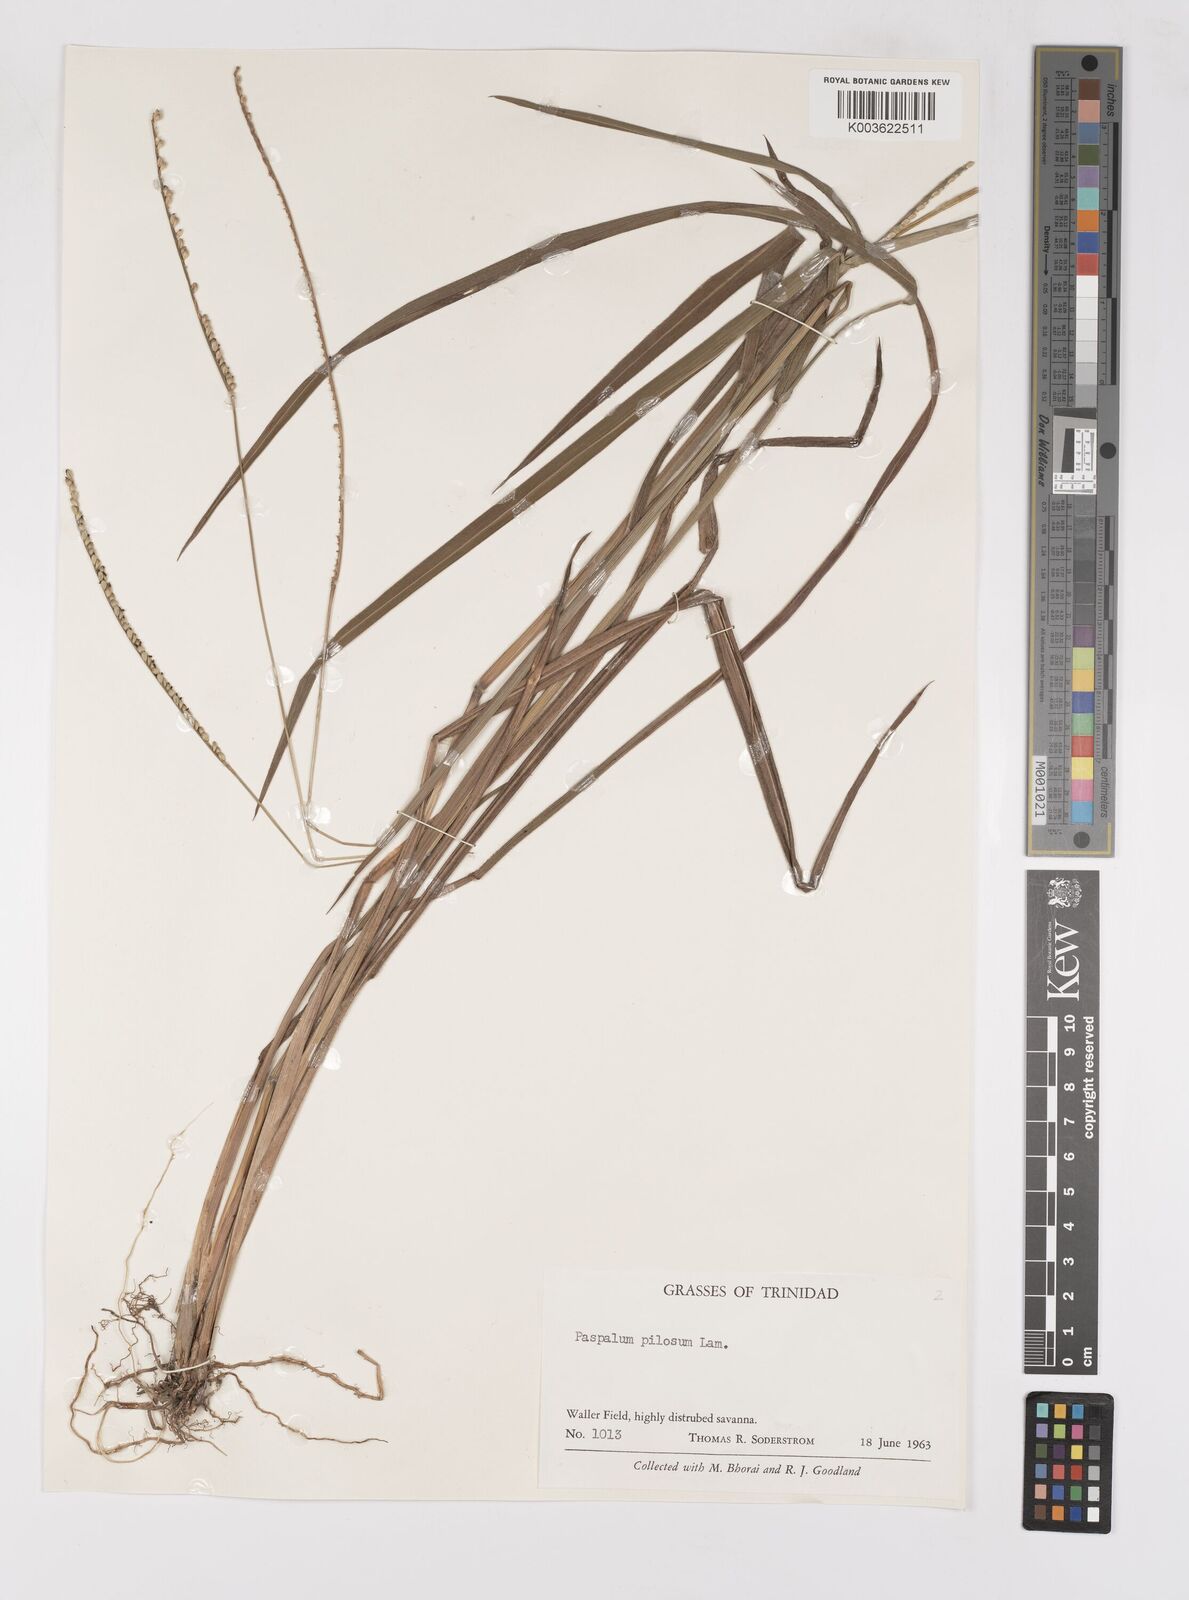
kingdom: Plantae
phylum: Tracheophyta
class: Liliopsida
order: Poales
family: Poaceae
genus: Paspalum
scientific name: Paspalum pilosum
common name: Crowngrass
